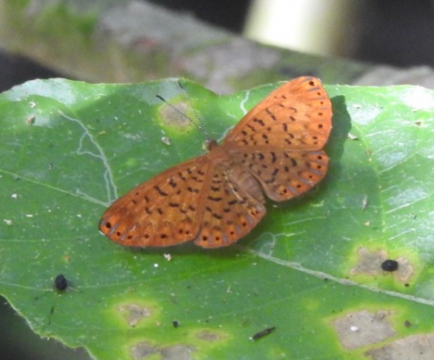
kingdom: Animalia
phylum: Arthropoda
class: Insecta
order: Lepidoptera
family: Riodinidae
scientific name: Riodinidae
